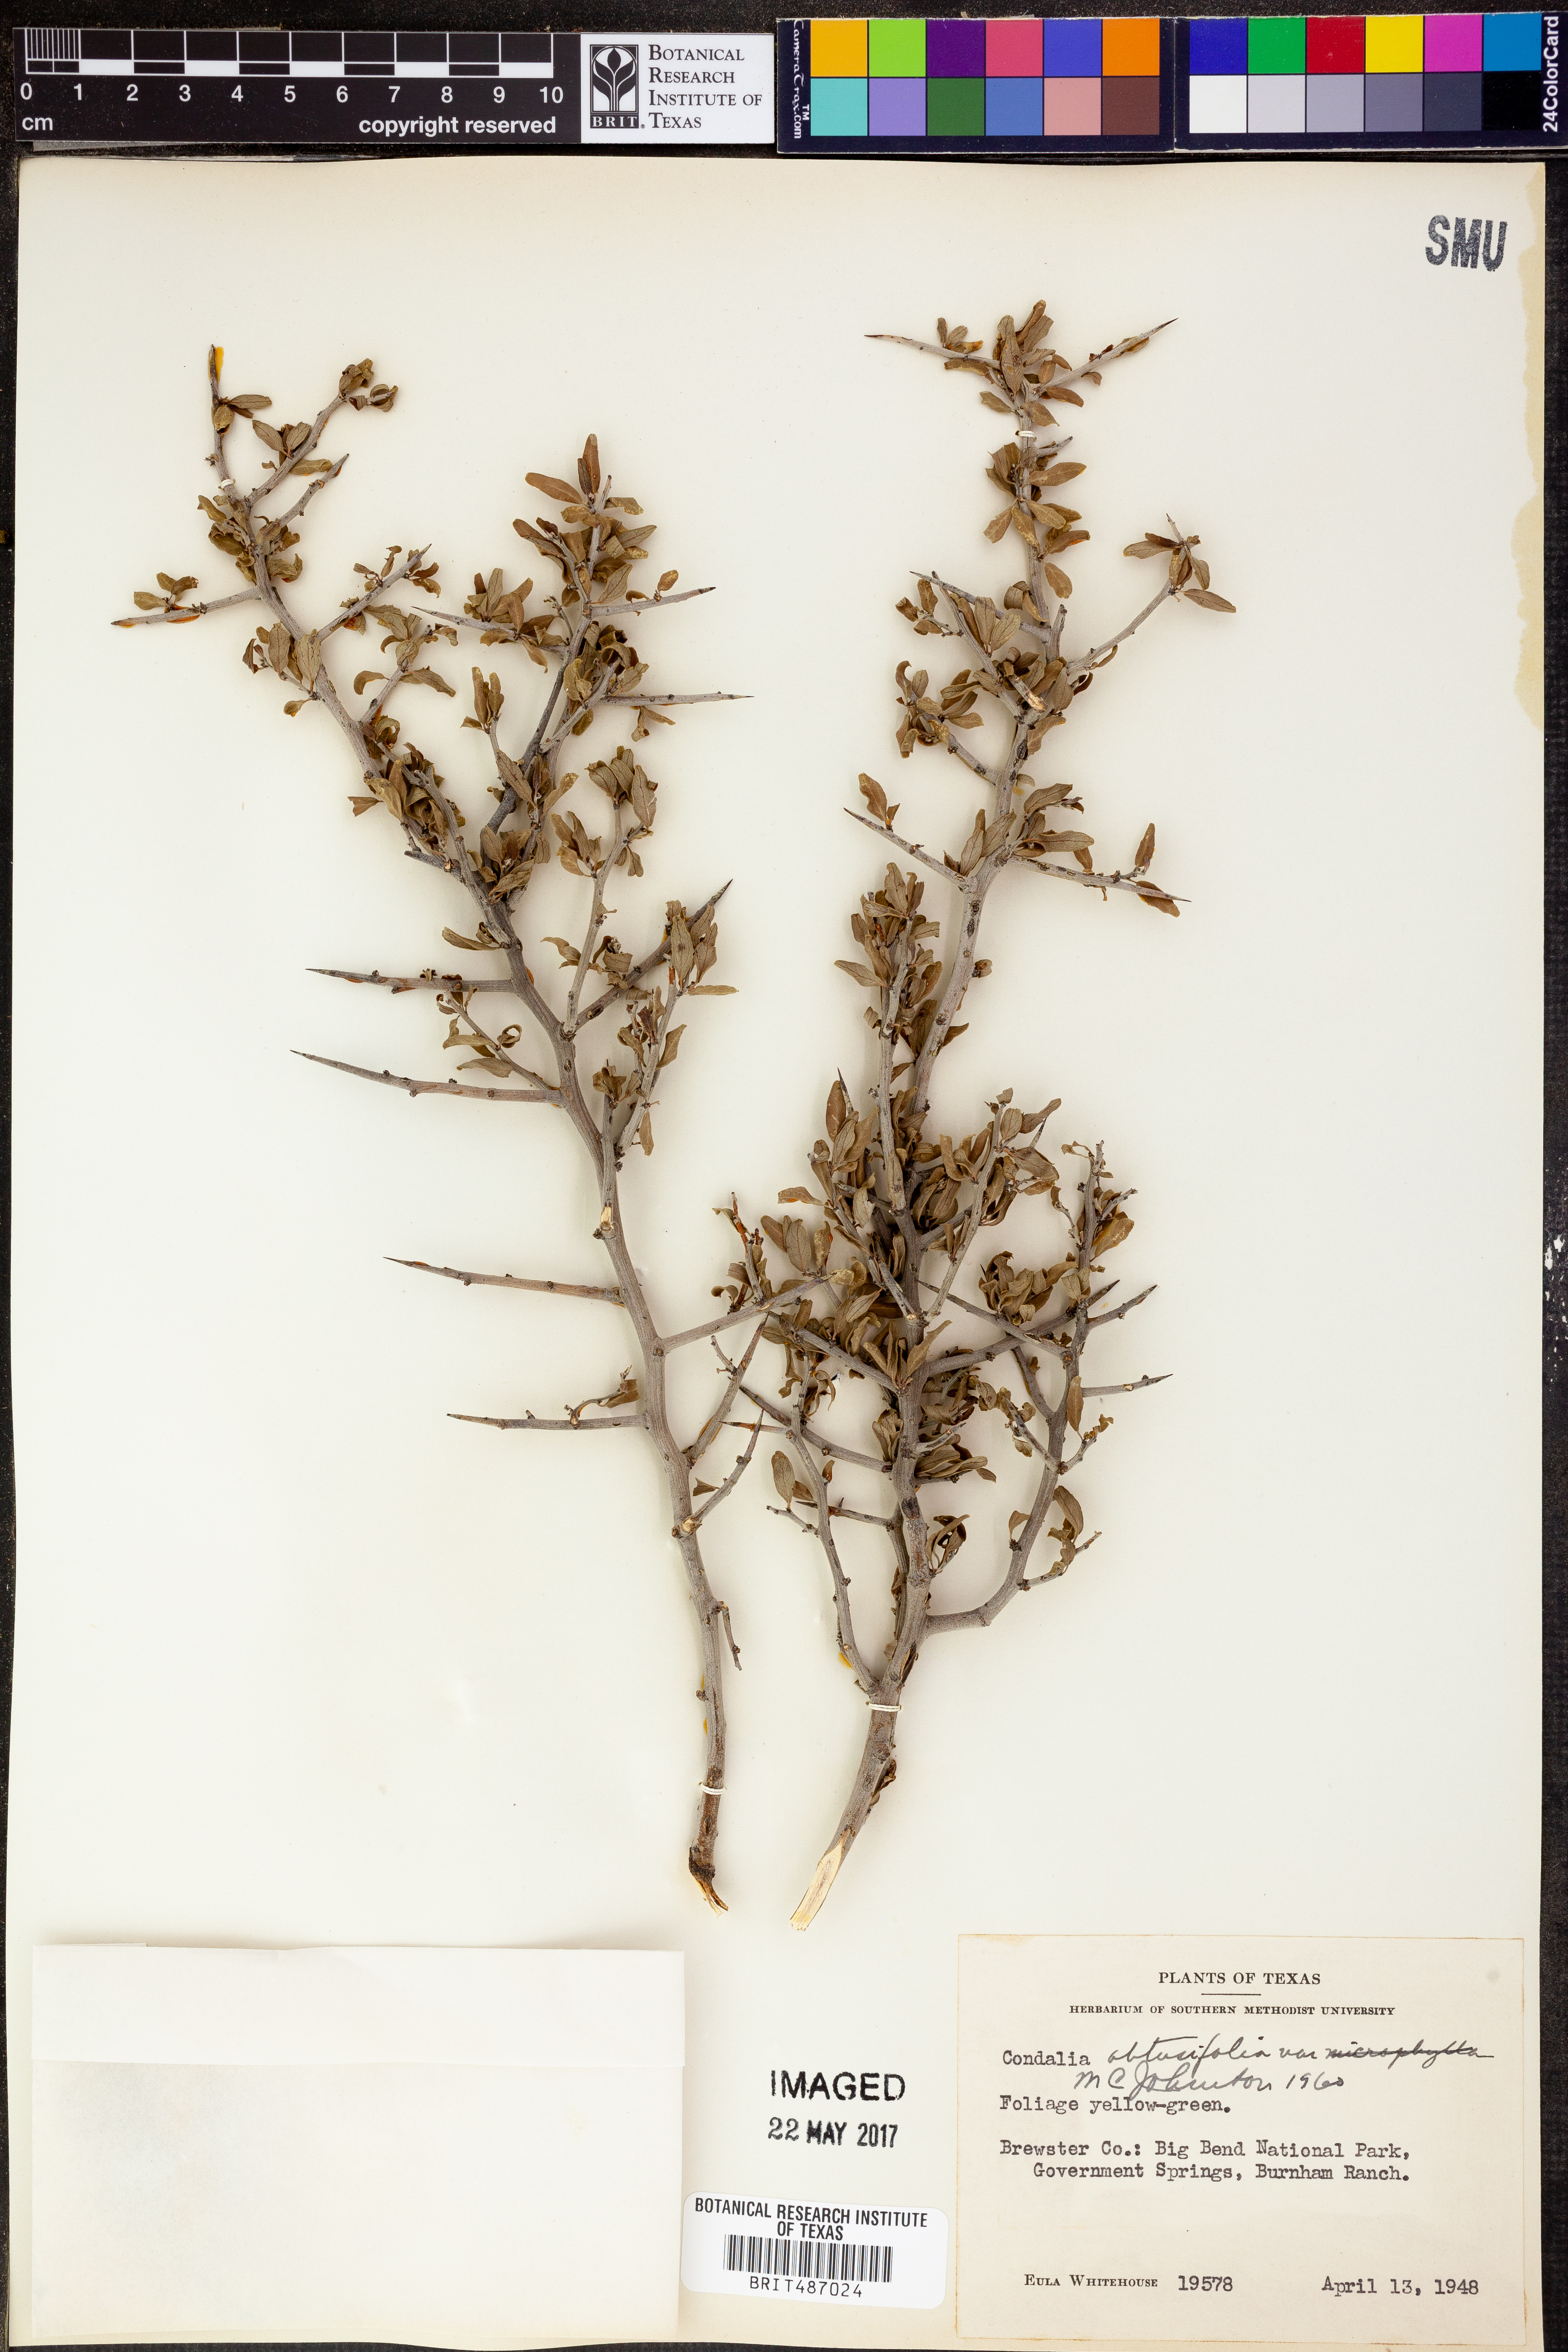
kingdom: Plantae
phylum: Tracheophyta
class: Magnoliopsida
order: Rosales
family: Rhamnaceae
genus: Sarcomphalus
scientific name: Sarcomphalus obtusifolius
